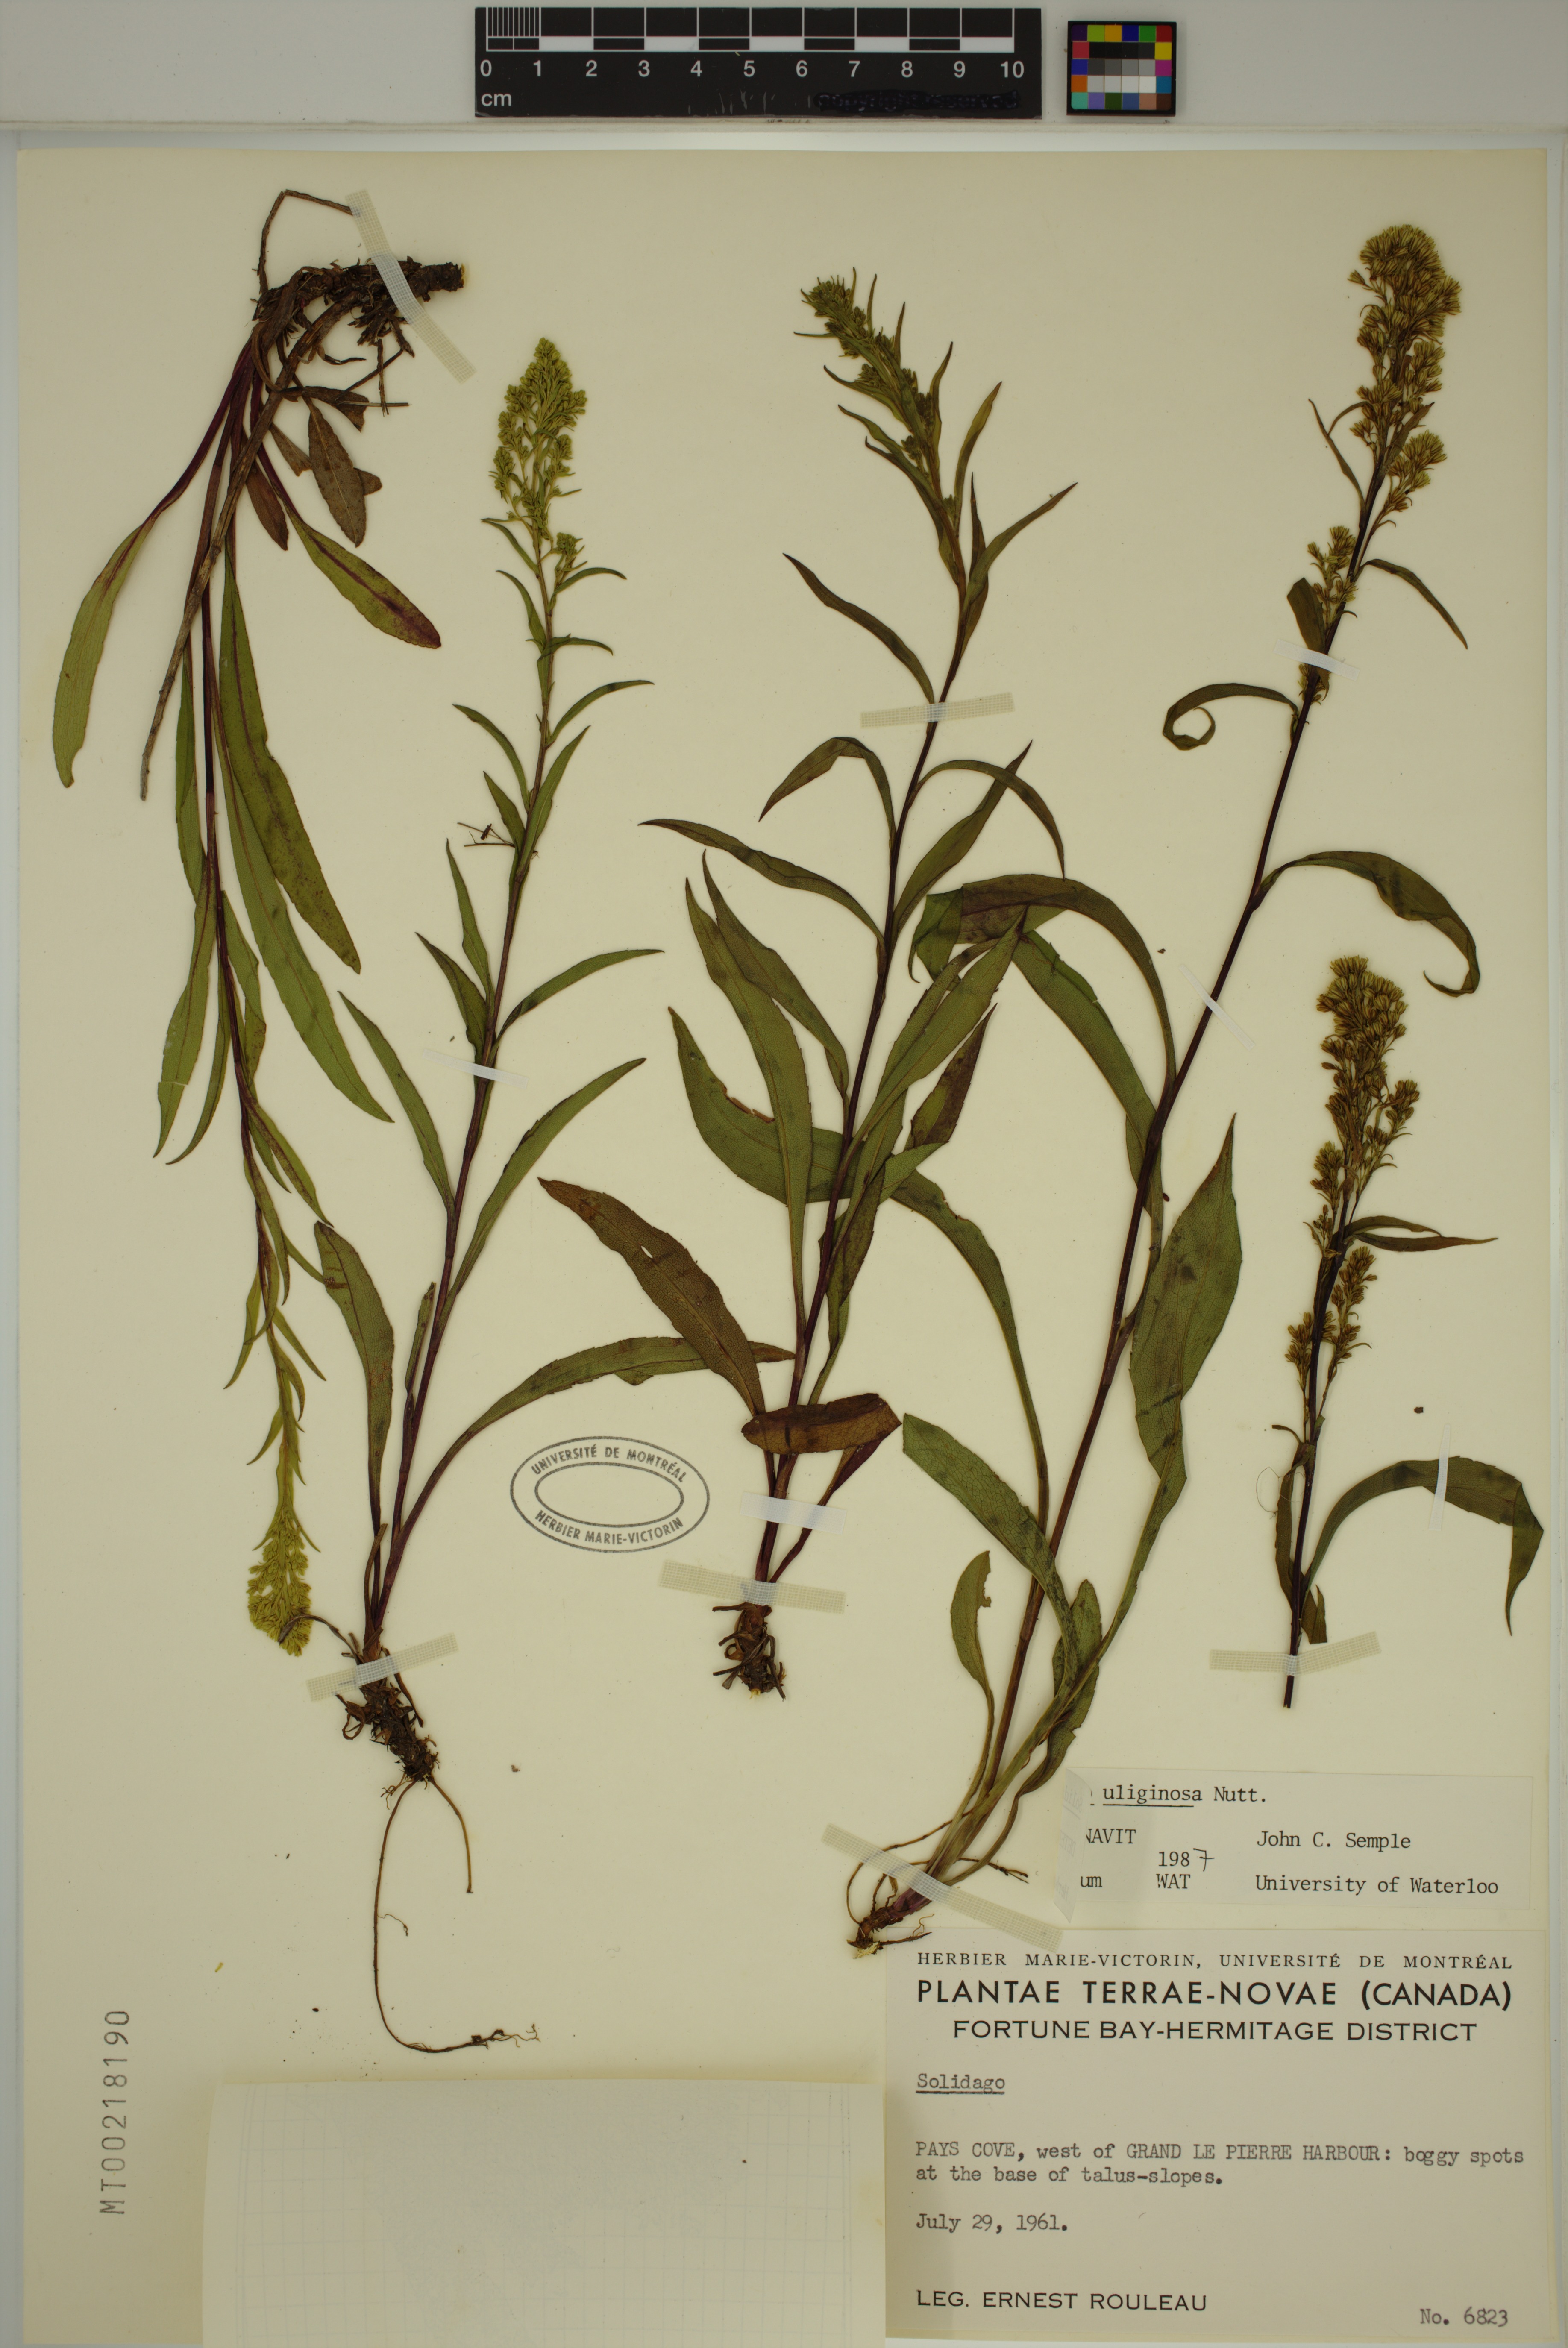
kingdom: Plantae
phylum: Tracheophyta
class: Magnoliopsida
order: Asterales
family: Asteraceae
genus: Solidago
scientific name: Solidago uliginosa
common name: Bog goldenrod
